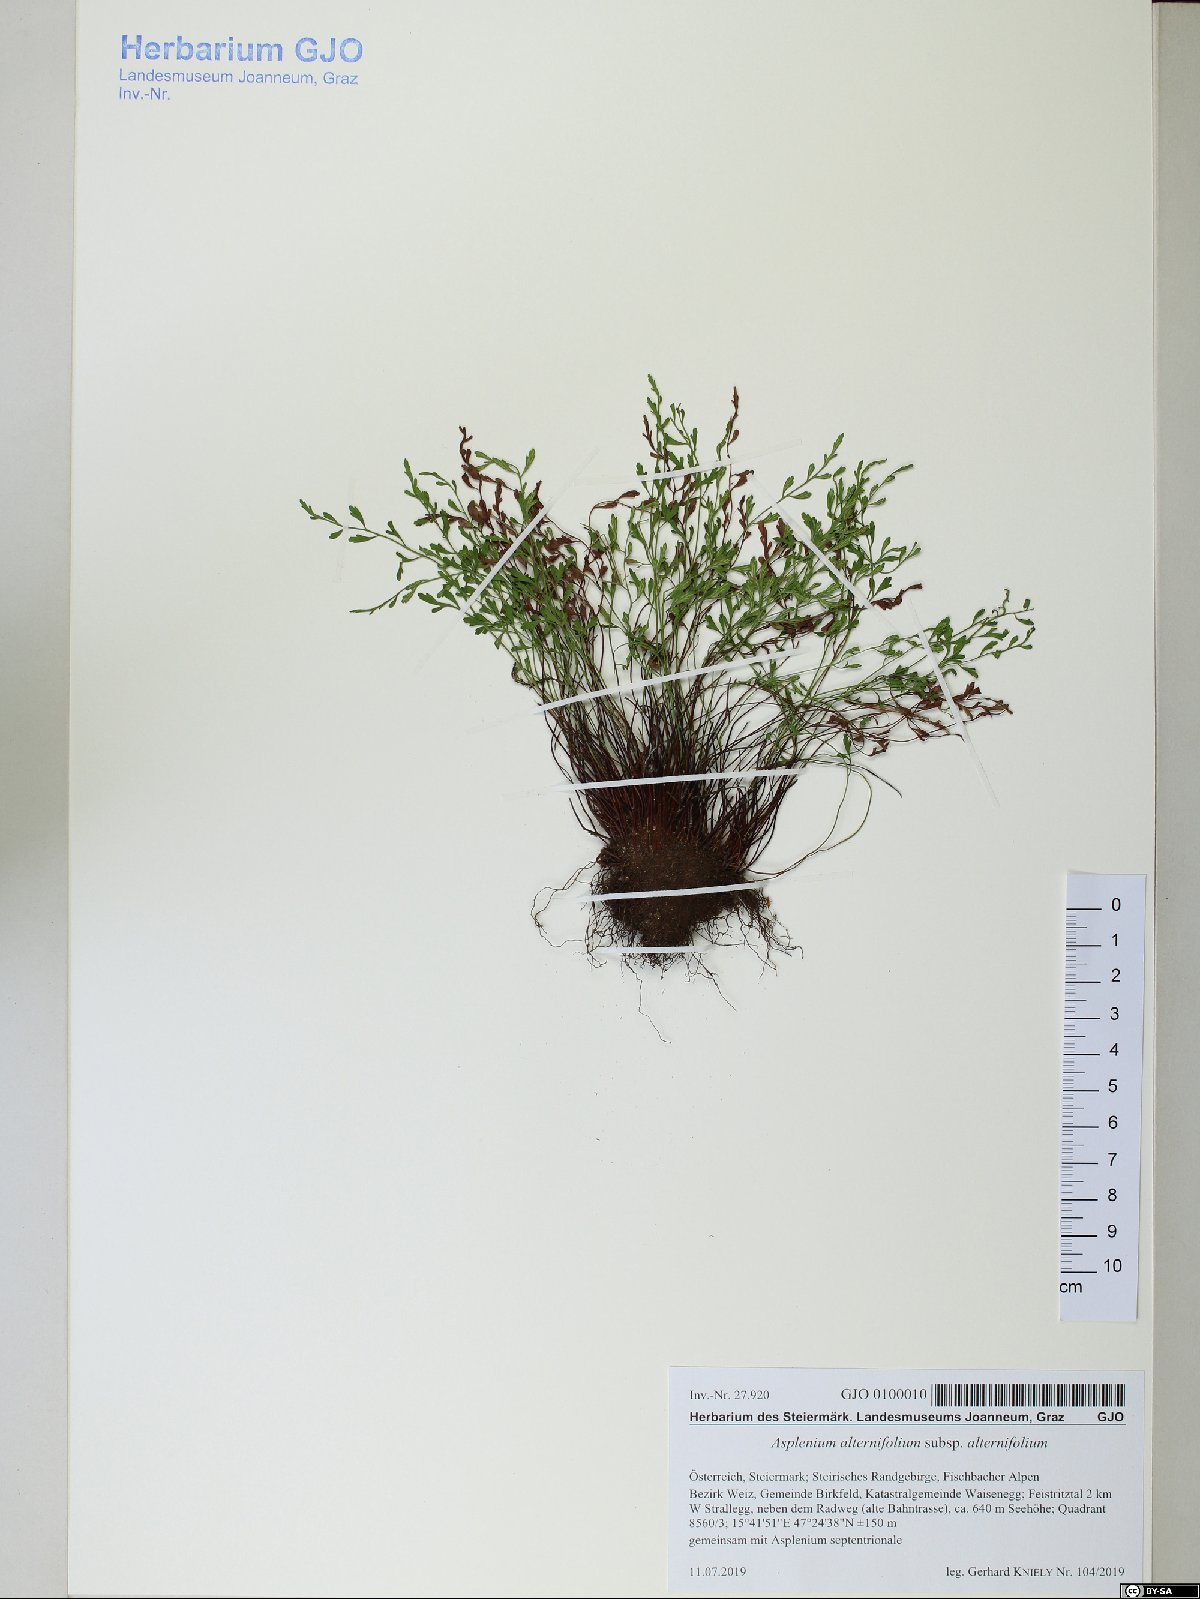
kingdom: Plantae
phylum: Tracheophyta
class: Polypodiopsida
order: Polypodiales
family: Aspleniaceae
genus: Asplenium
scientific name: Asplenium alternifolium
